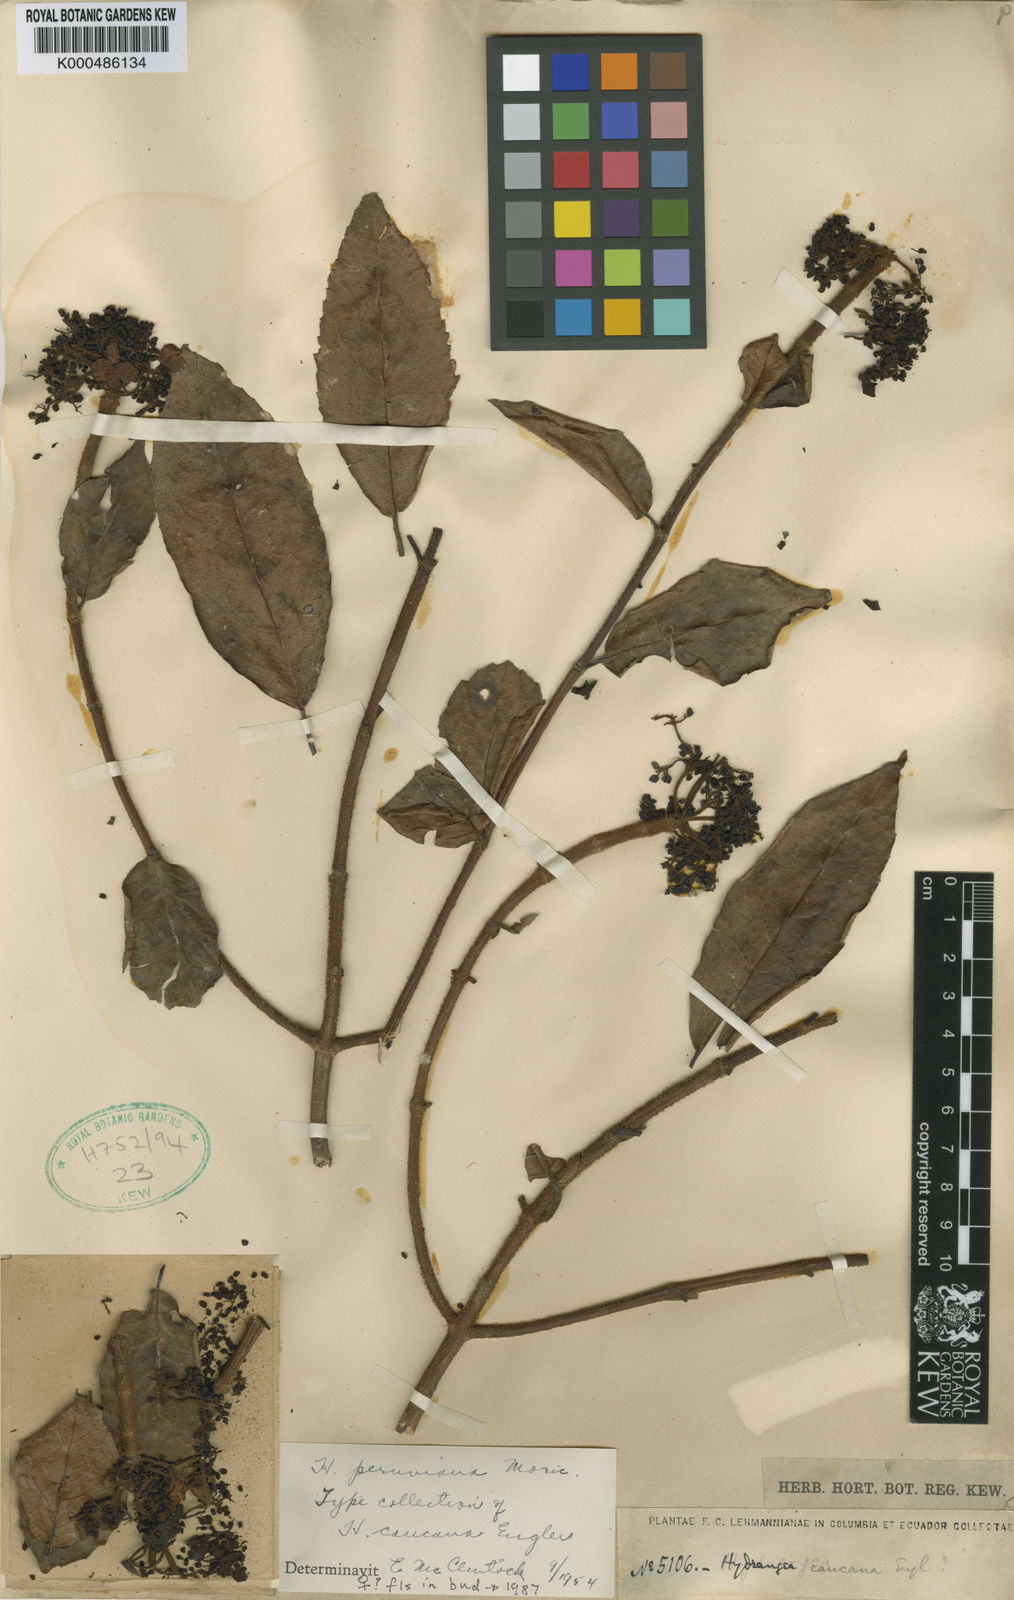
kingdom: Plantae
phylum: Tracheophyta
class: Magnoliopsida
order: Cornales
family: Hydrangeaceae
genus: Hydrangea
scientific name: Hydrangea
